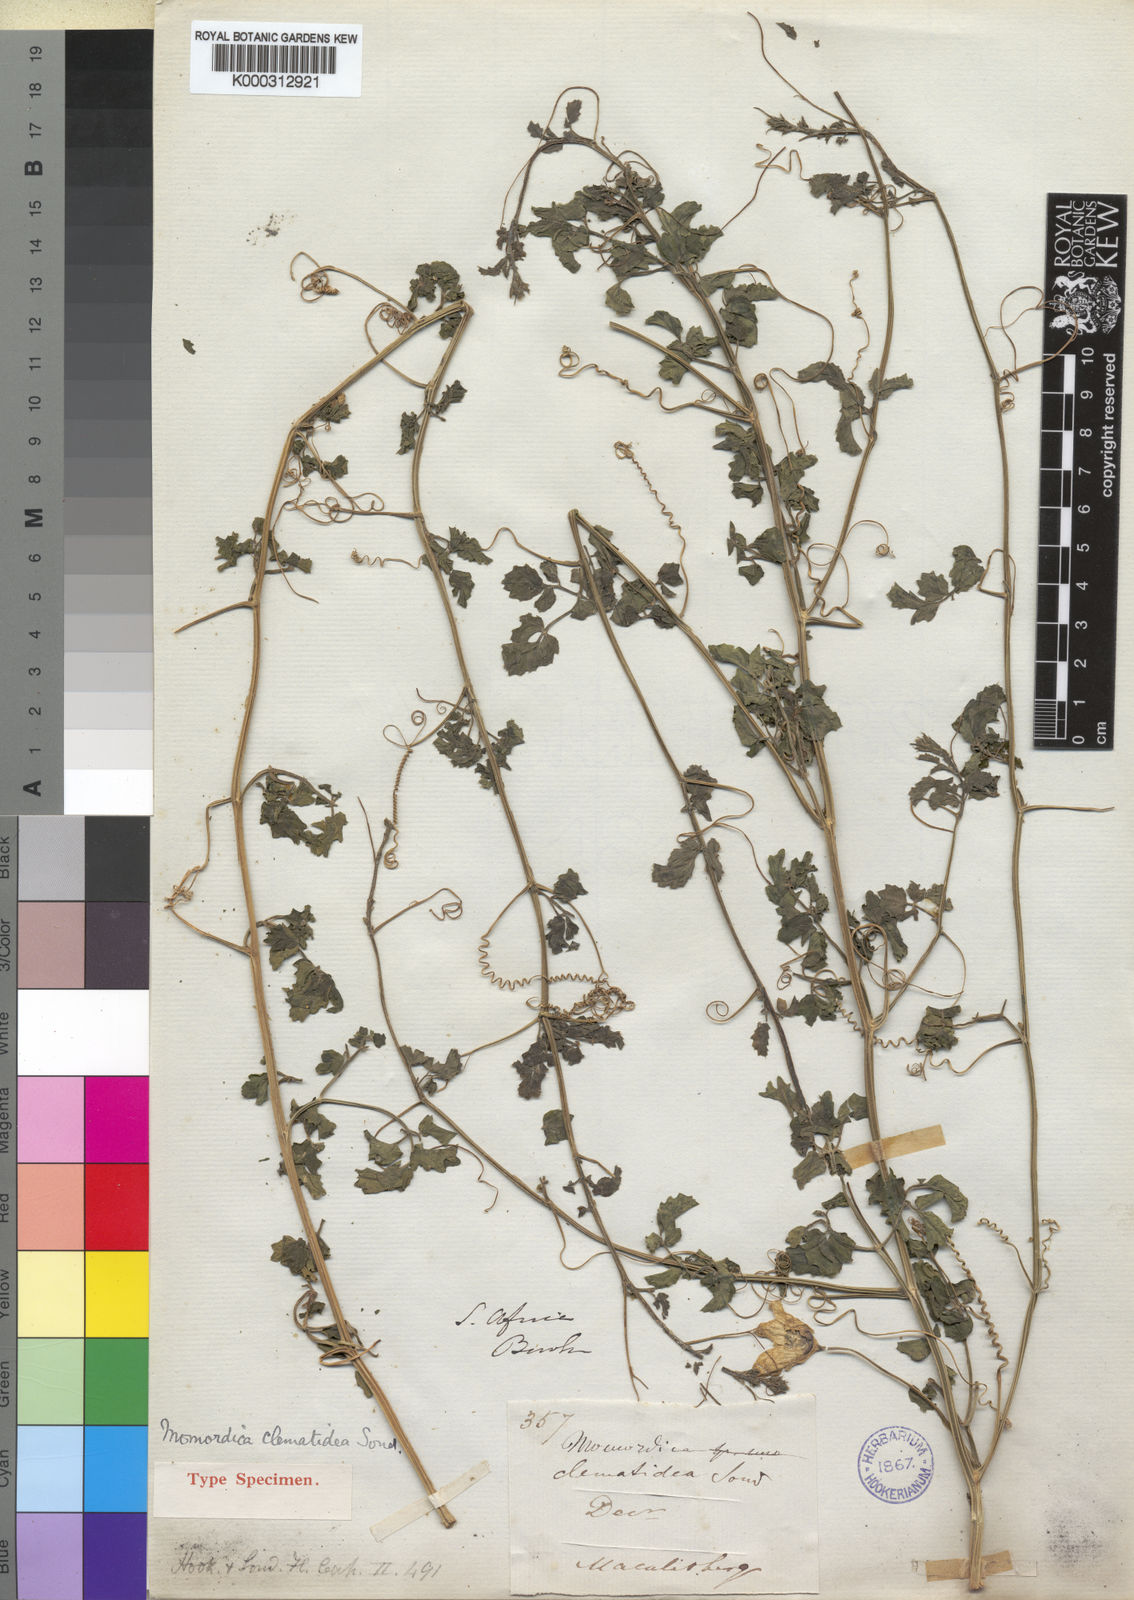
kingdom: Plantae
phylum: Tracheophyta
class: Magnoliopsida
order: Cucurbitales
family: Cucurbitaceae
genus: Momordica
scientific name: Momordica cardiospermoides
